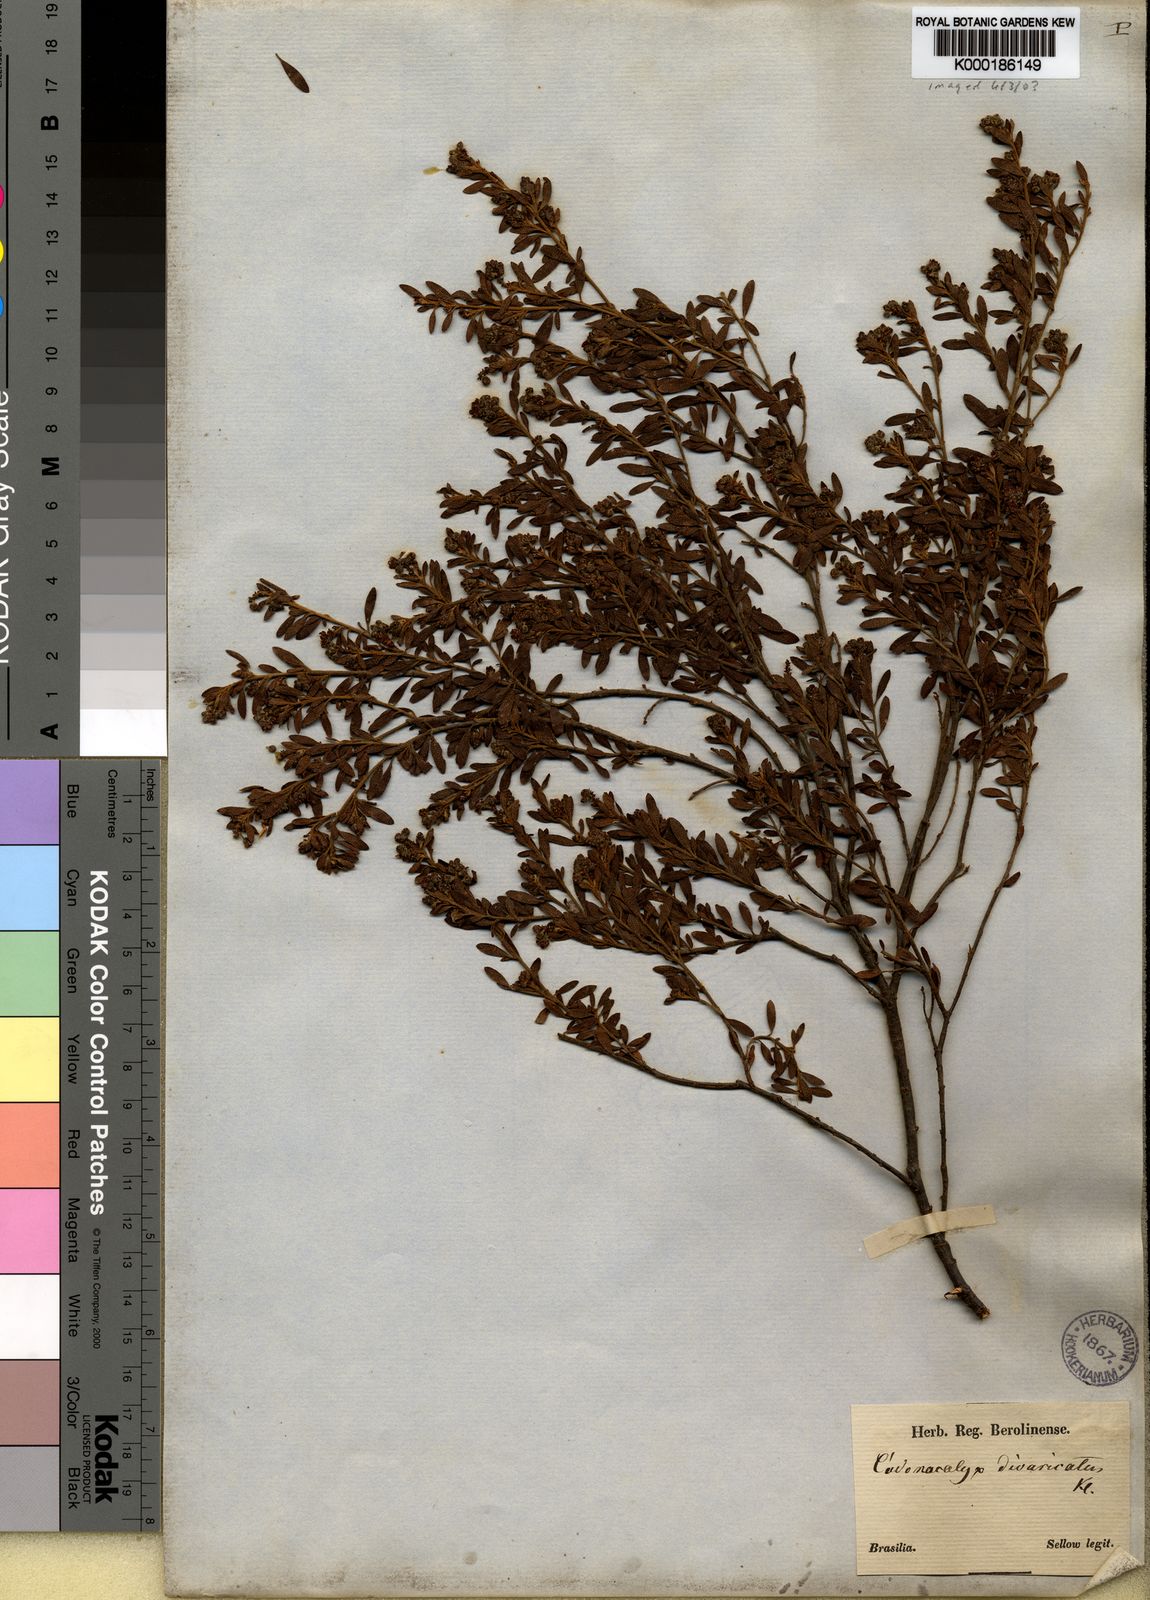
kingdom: Plantae
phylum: Tracheophyta
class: Magnoliopsida
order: Malpighiales
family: Euphorbiaceae
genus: Croton
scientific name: Croton
